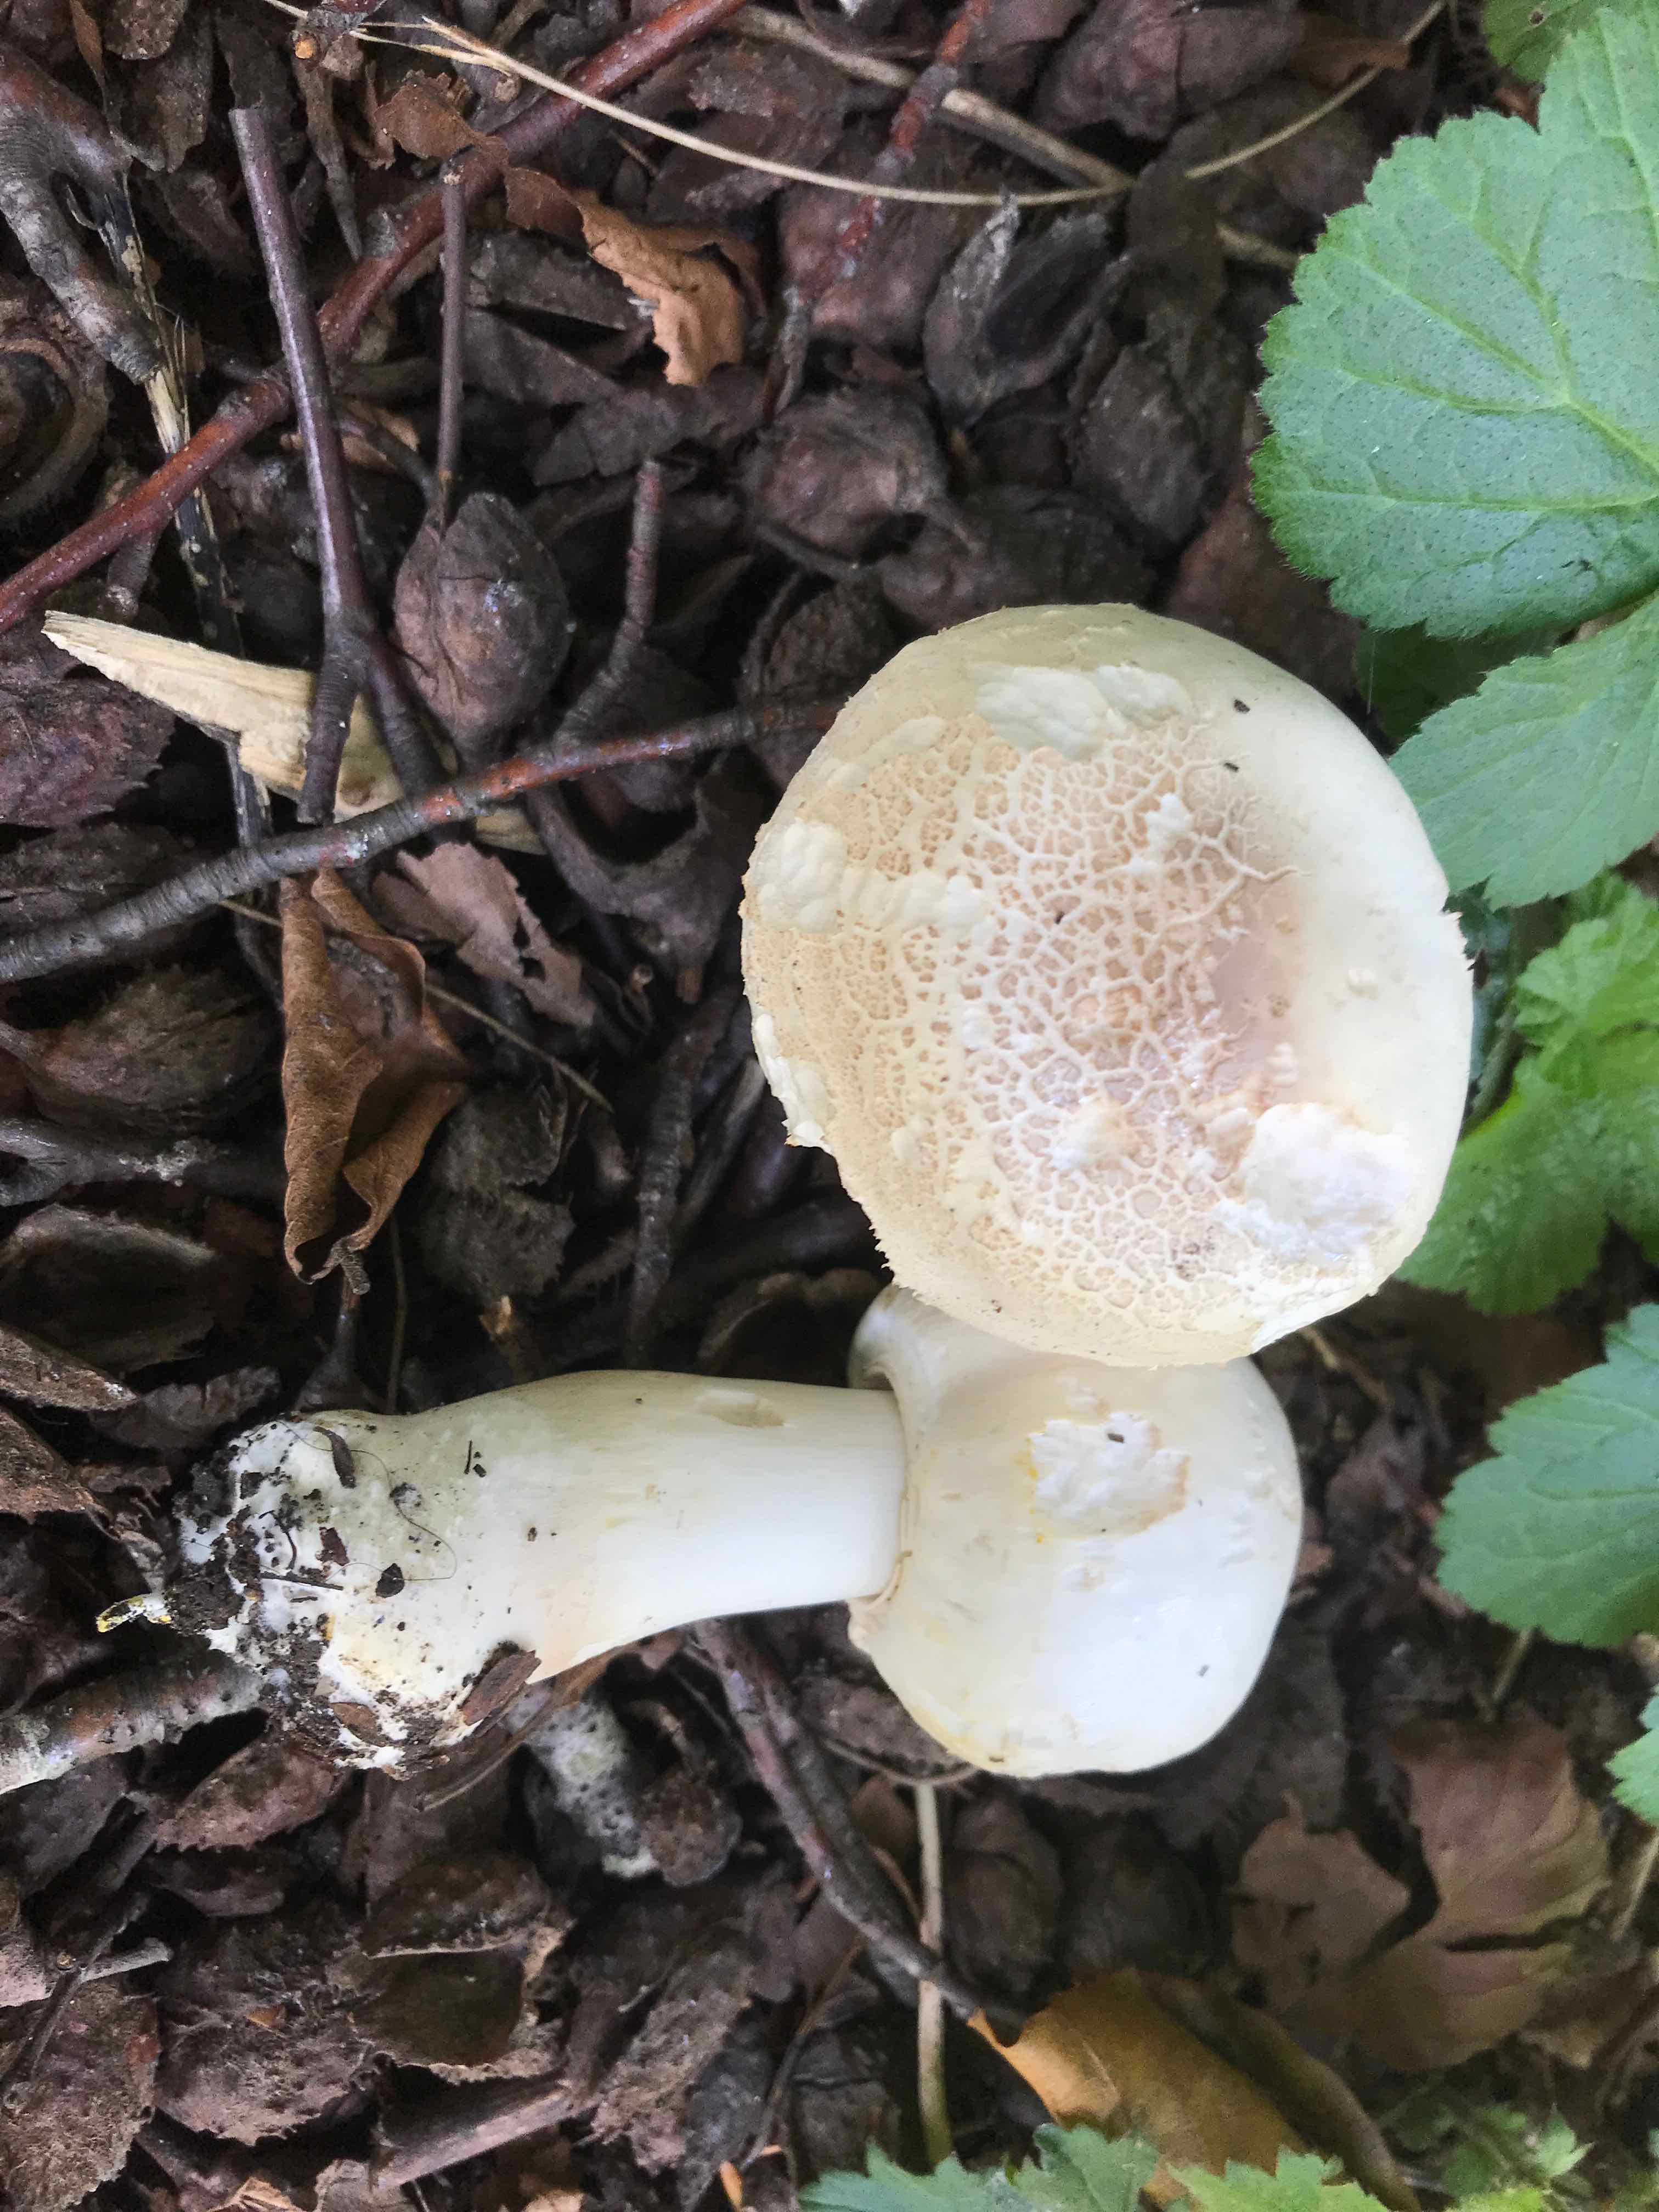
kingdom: Fungi
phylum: Basidiomycota
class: Agaricomycetes
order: Agaricales
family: Agaricaceae
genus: Agaricus
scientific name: Agaricus xanthodermus
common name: karbol-champignon
